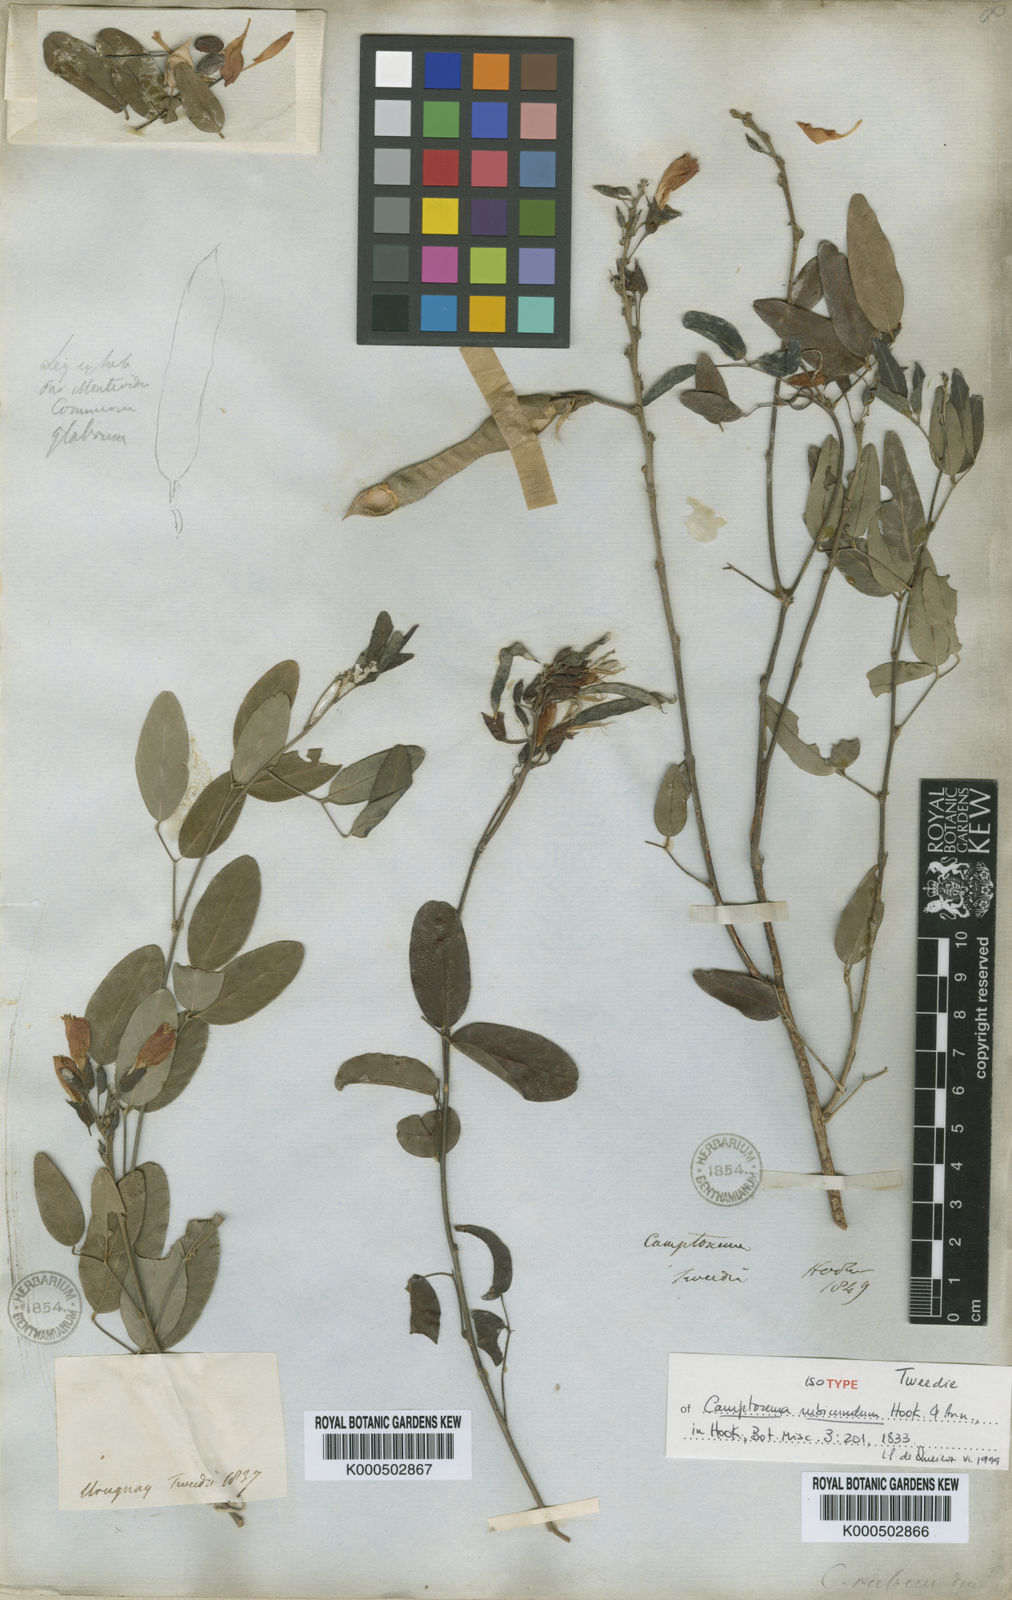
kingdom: Plantae
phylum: Tracheophyta
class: Magnoliopsida
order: Fabales
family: Fabaceae
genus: Camptosema
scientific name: Camptosema rubicundum
